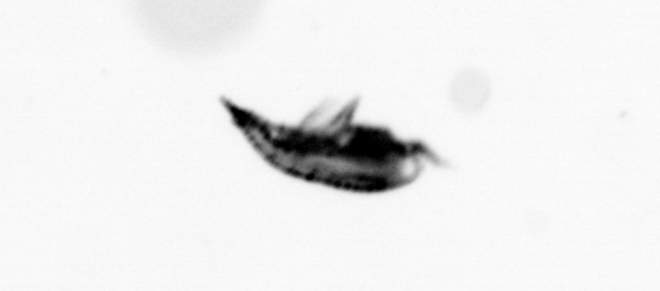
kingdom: Animalia
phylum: Arthropoda
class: Copepoda
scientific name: Copepoda
